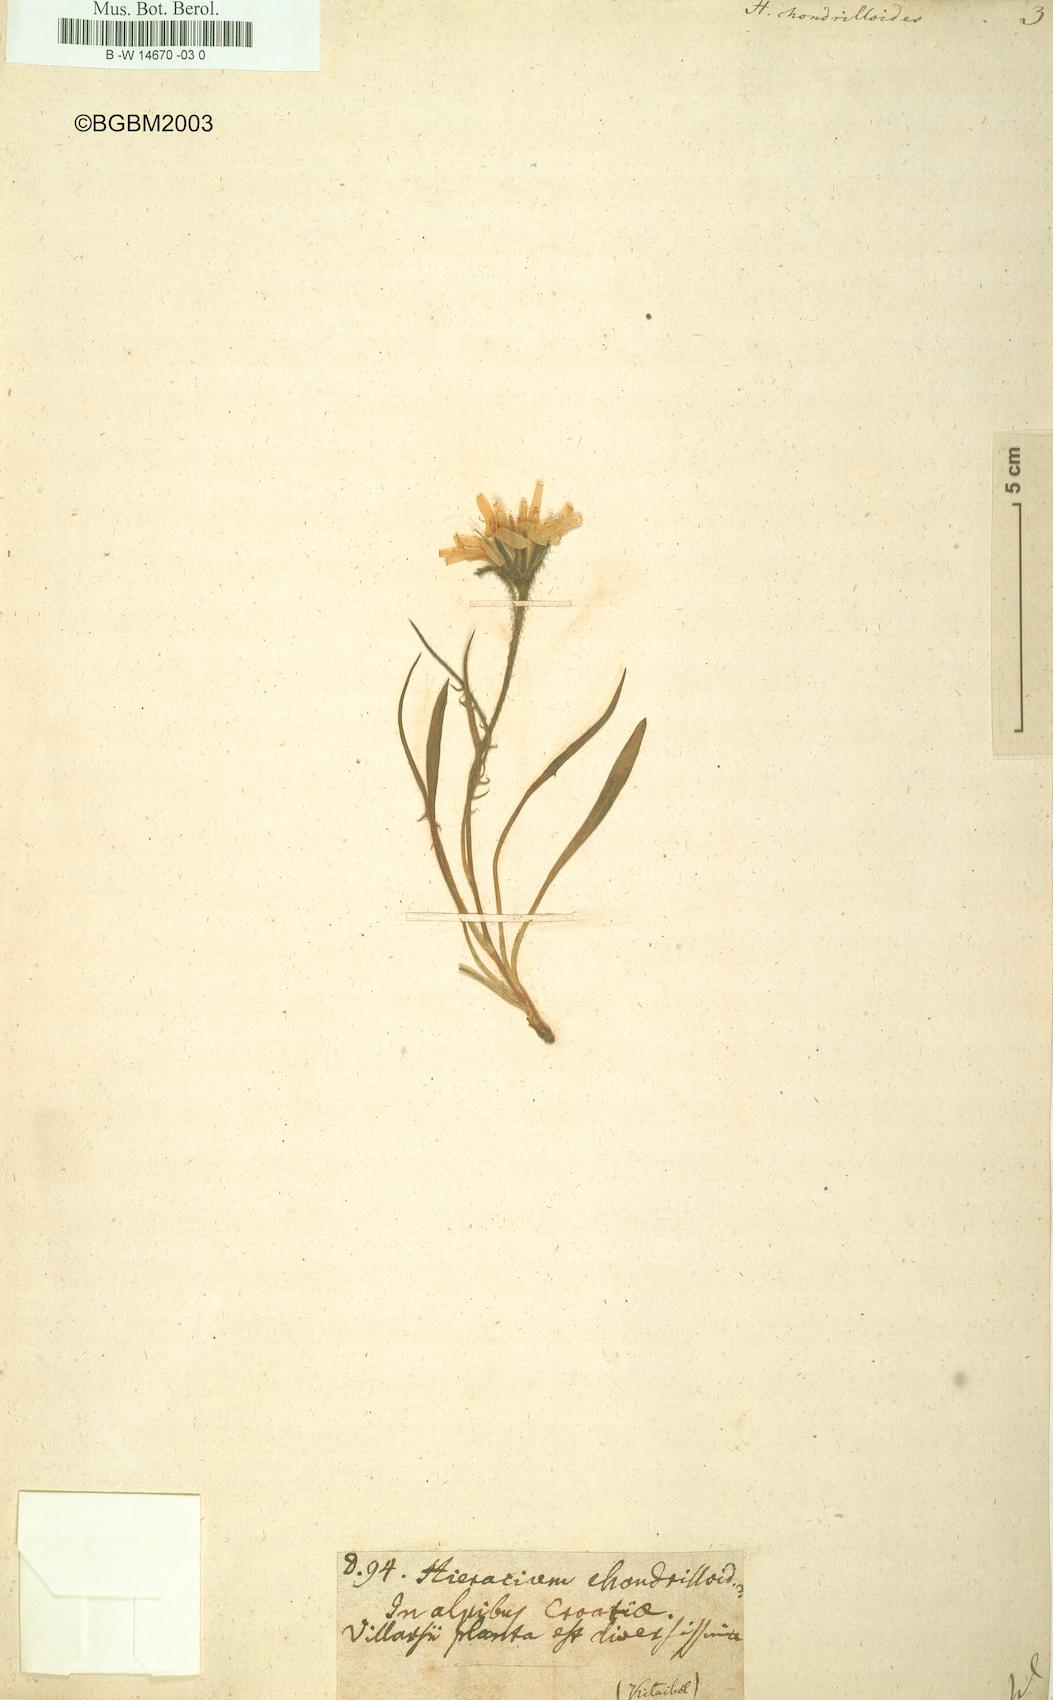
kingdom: Plantae
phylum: Tracheophyta
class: Magnoliopsida
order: Asterales
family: Asteraceae
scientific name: Asteraceae
